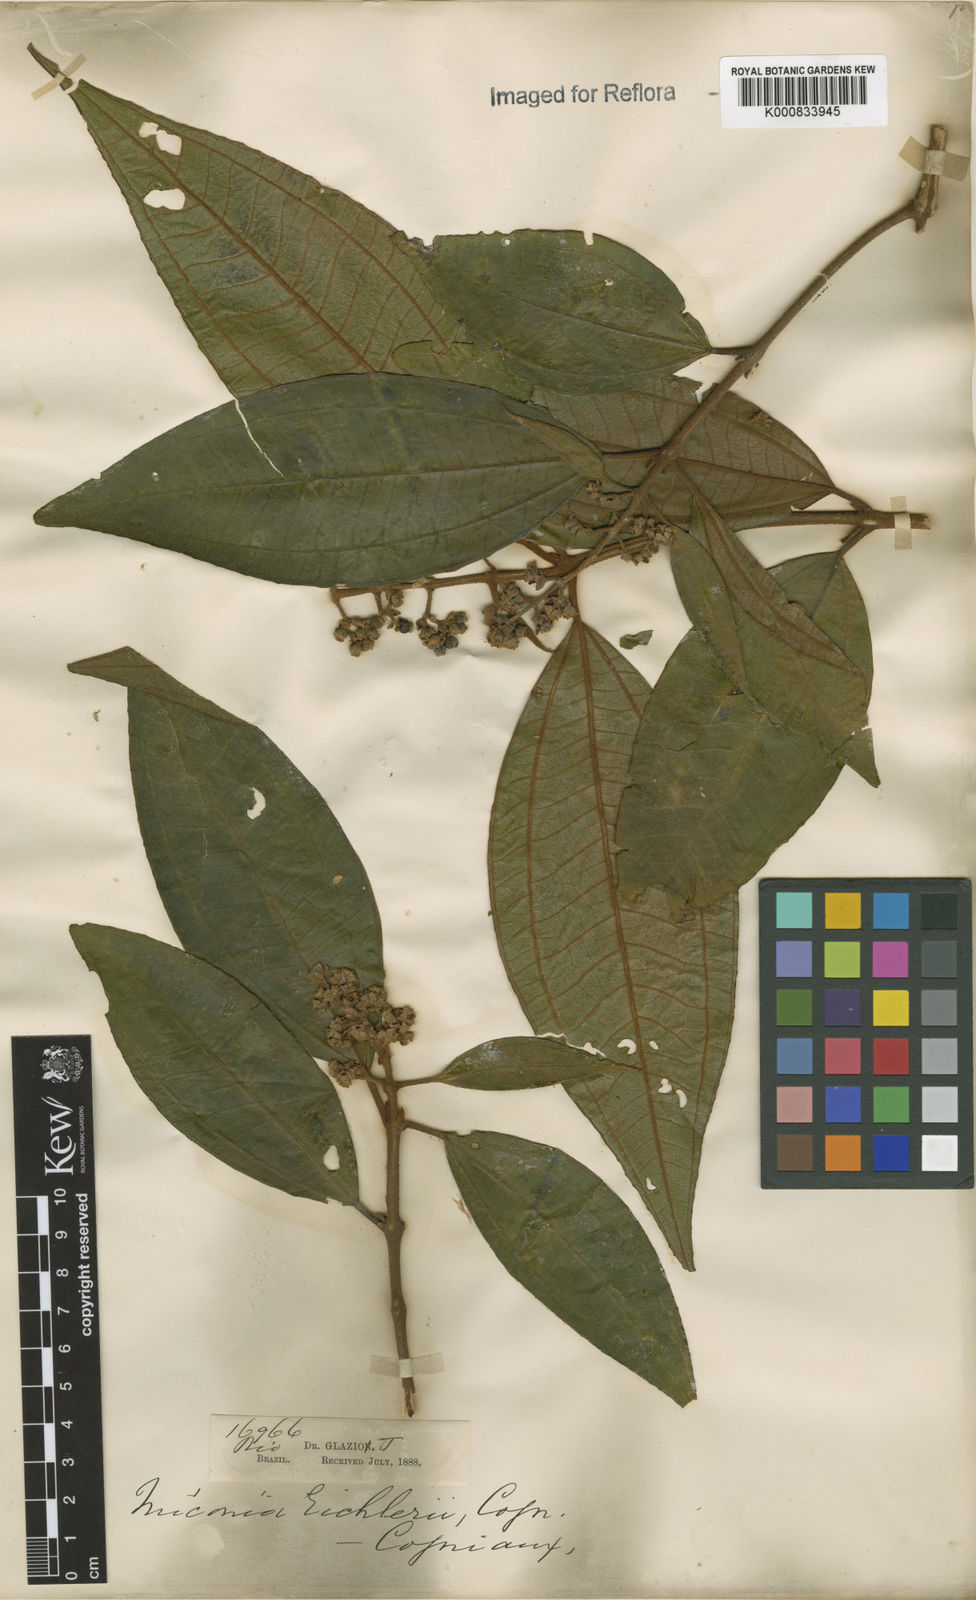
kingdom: Plantae
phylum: Tracheophyta
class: Magnoliopsida
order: Myrtales
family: Melastomataceae
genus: Miconia
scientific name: Miconia valtheri
